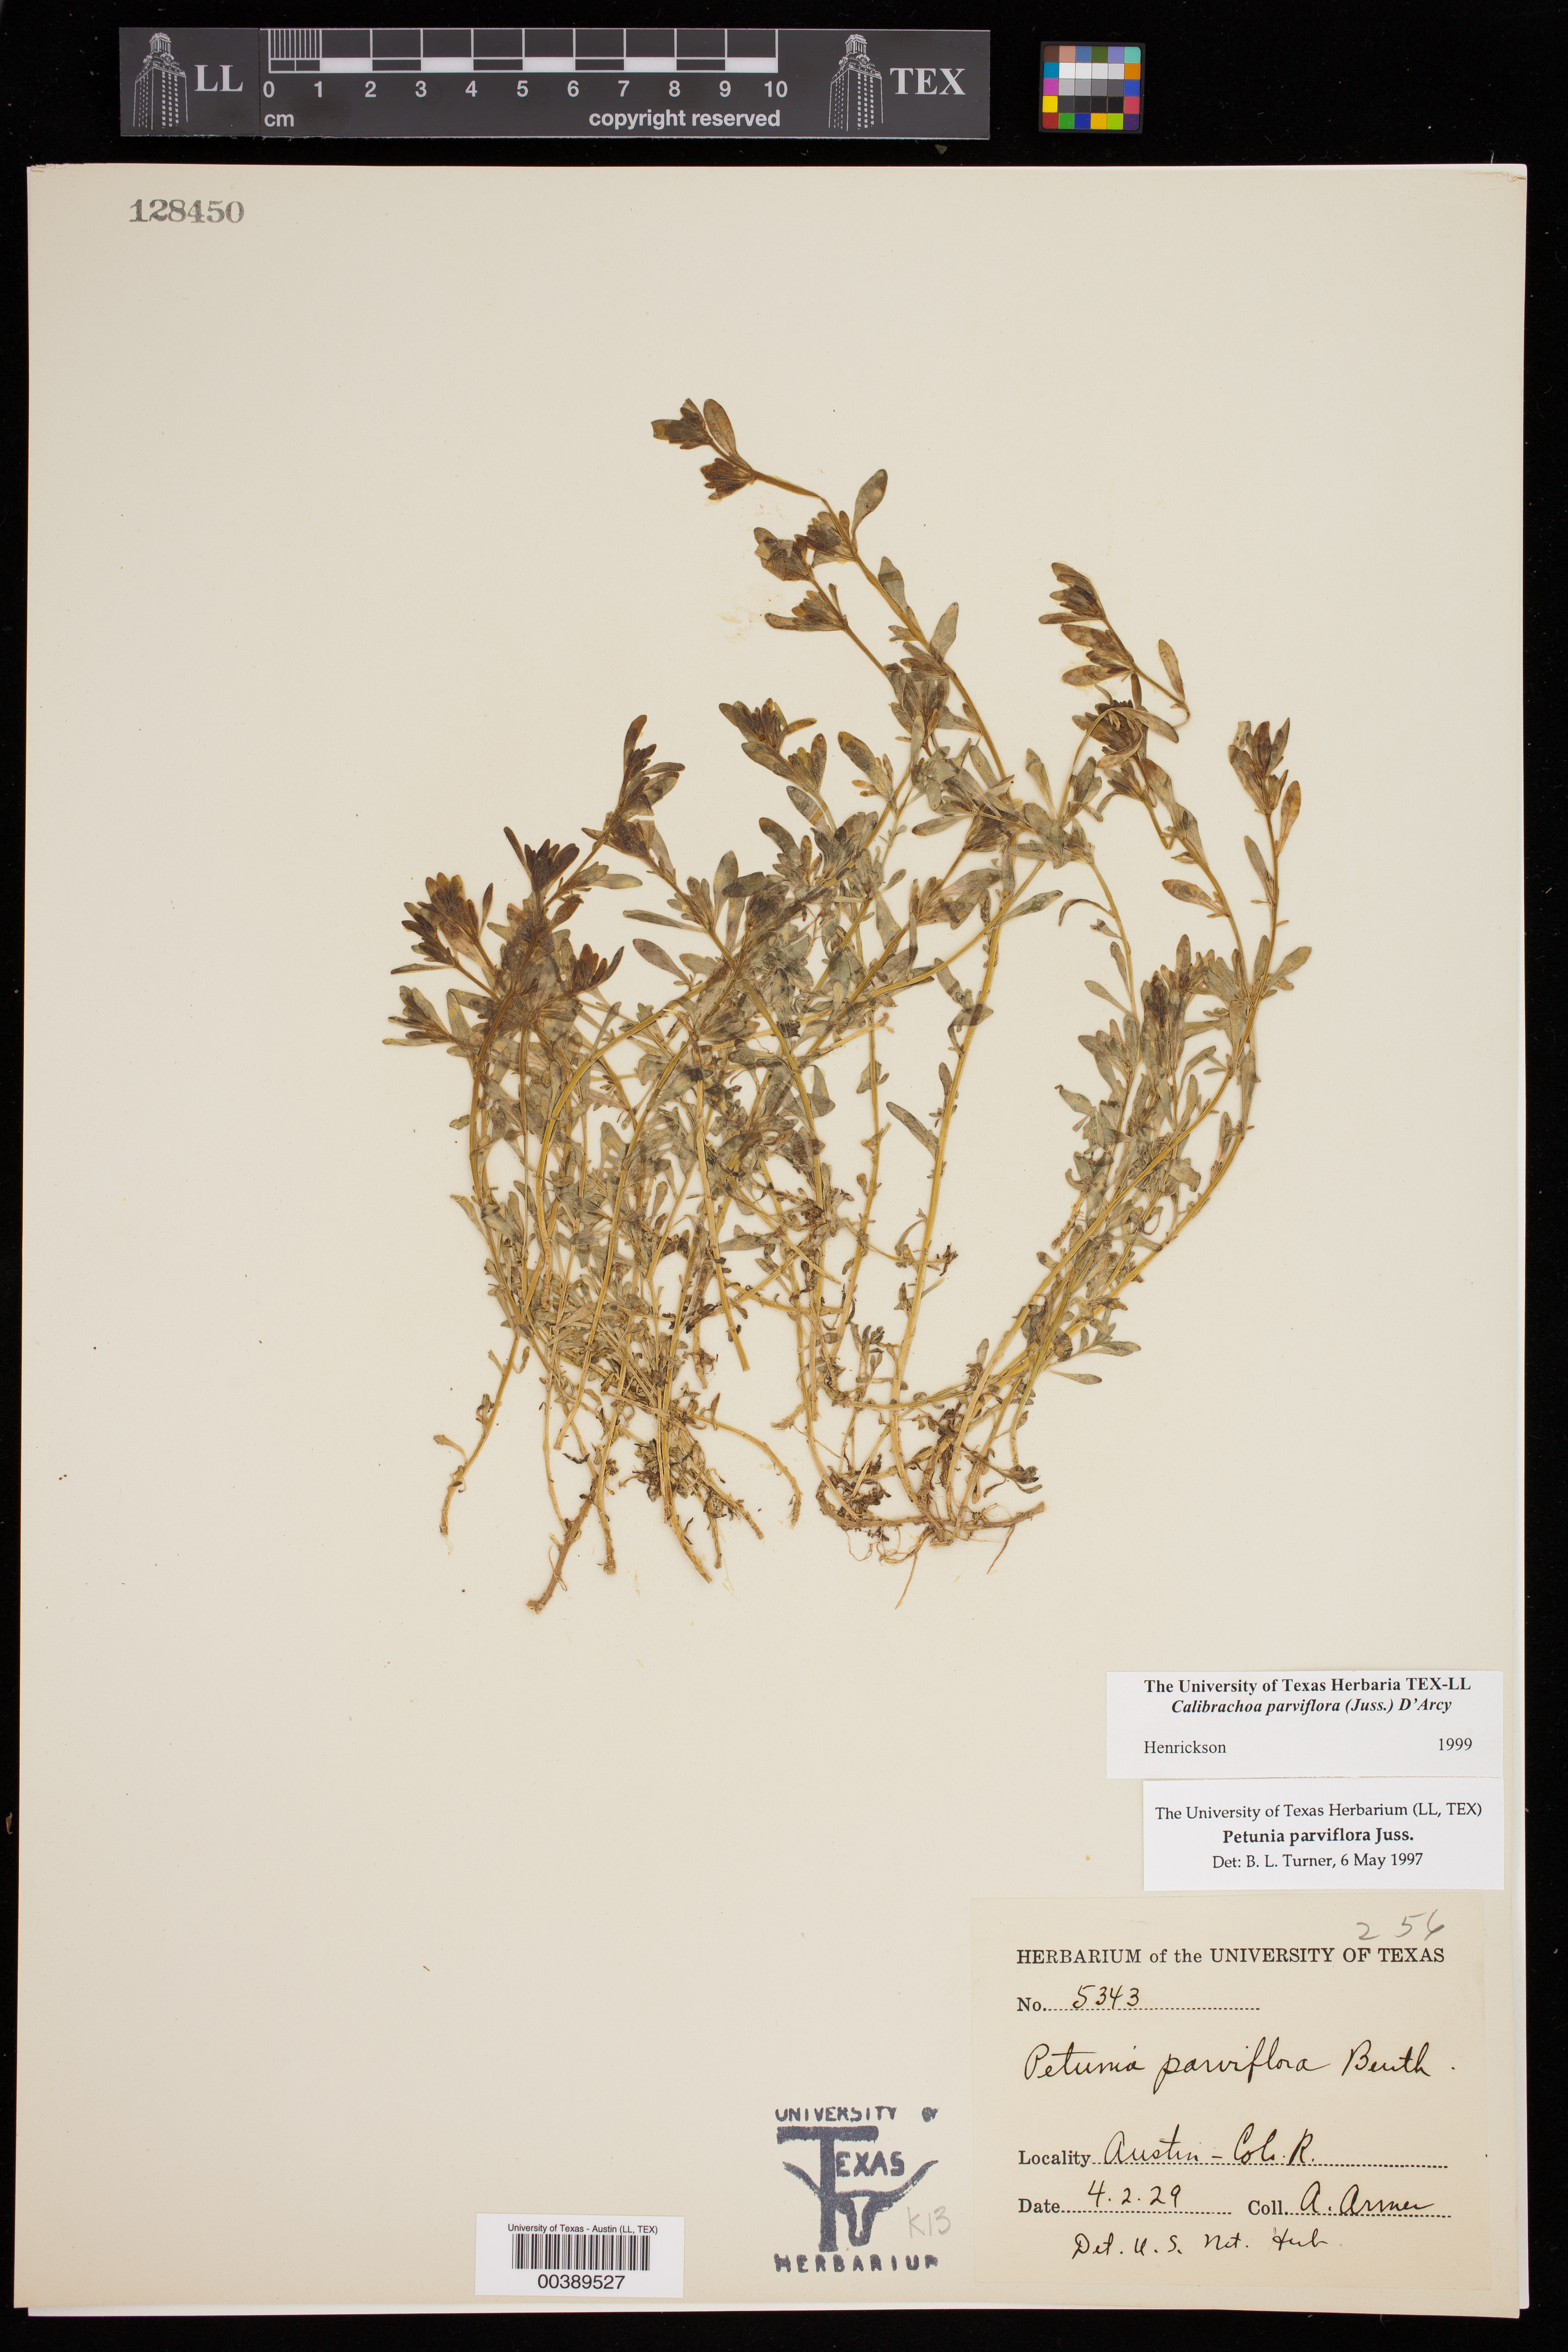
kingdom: Plantae
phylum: Tracheophyta
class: Magnoliopsida
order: Solanales
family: Solanaceae
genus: Calibrachoa
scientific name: Calibrachoa parviflora
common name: Seaside petunia
